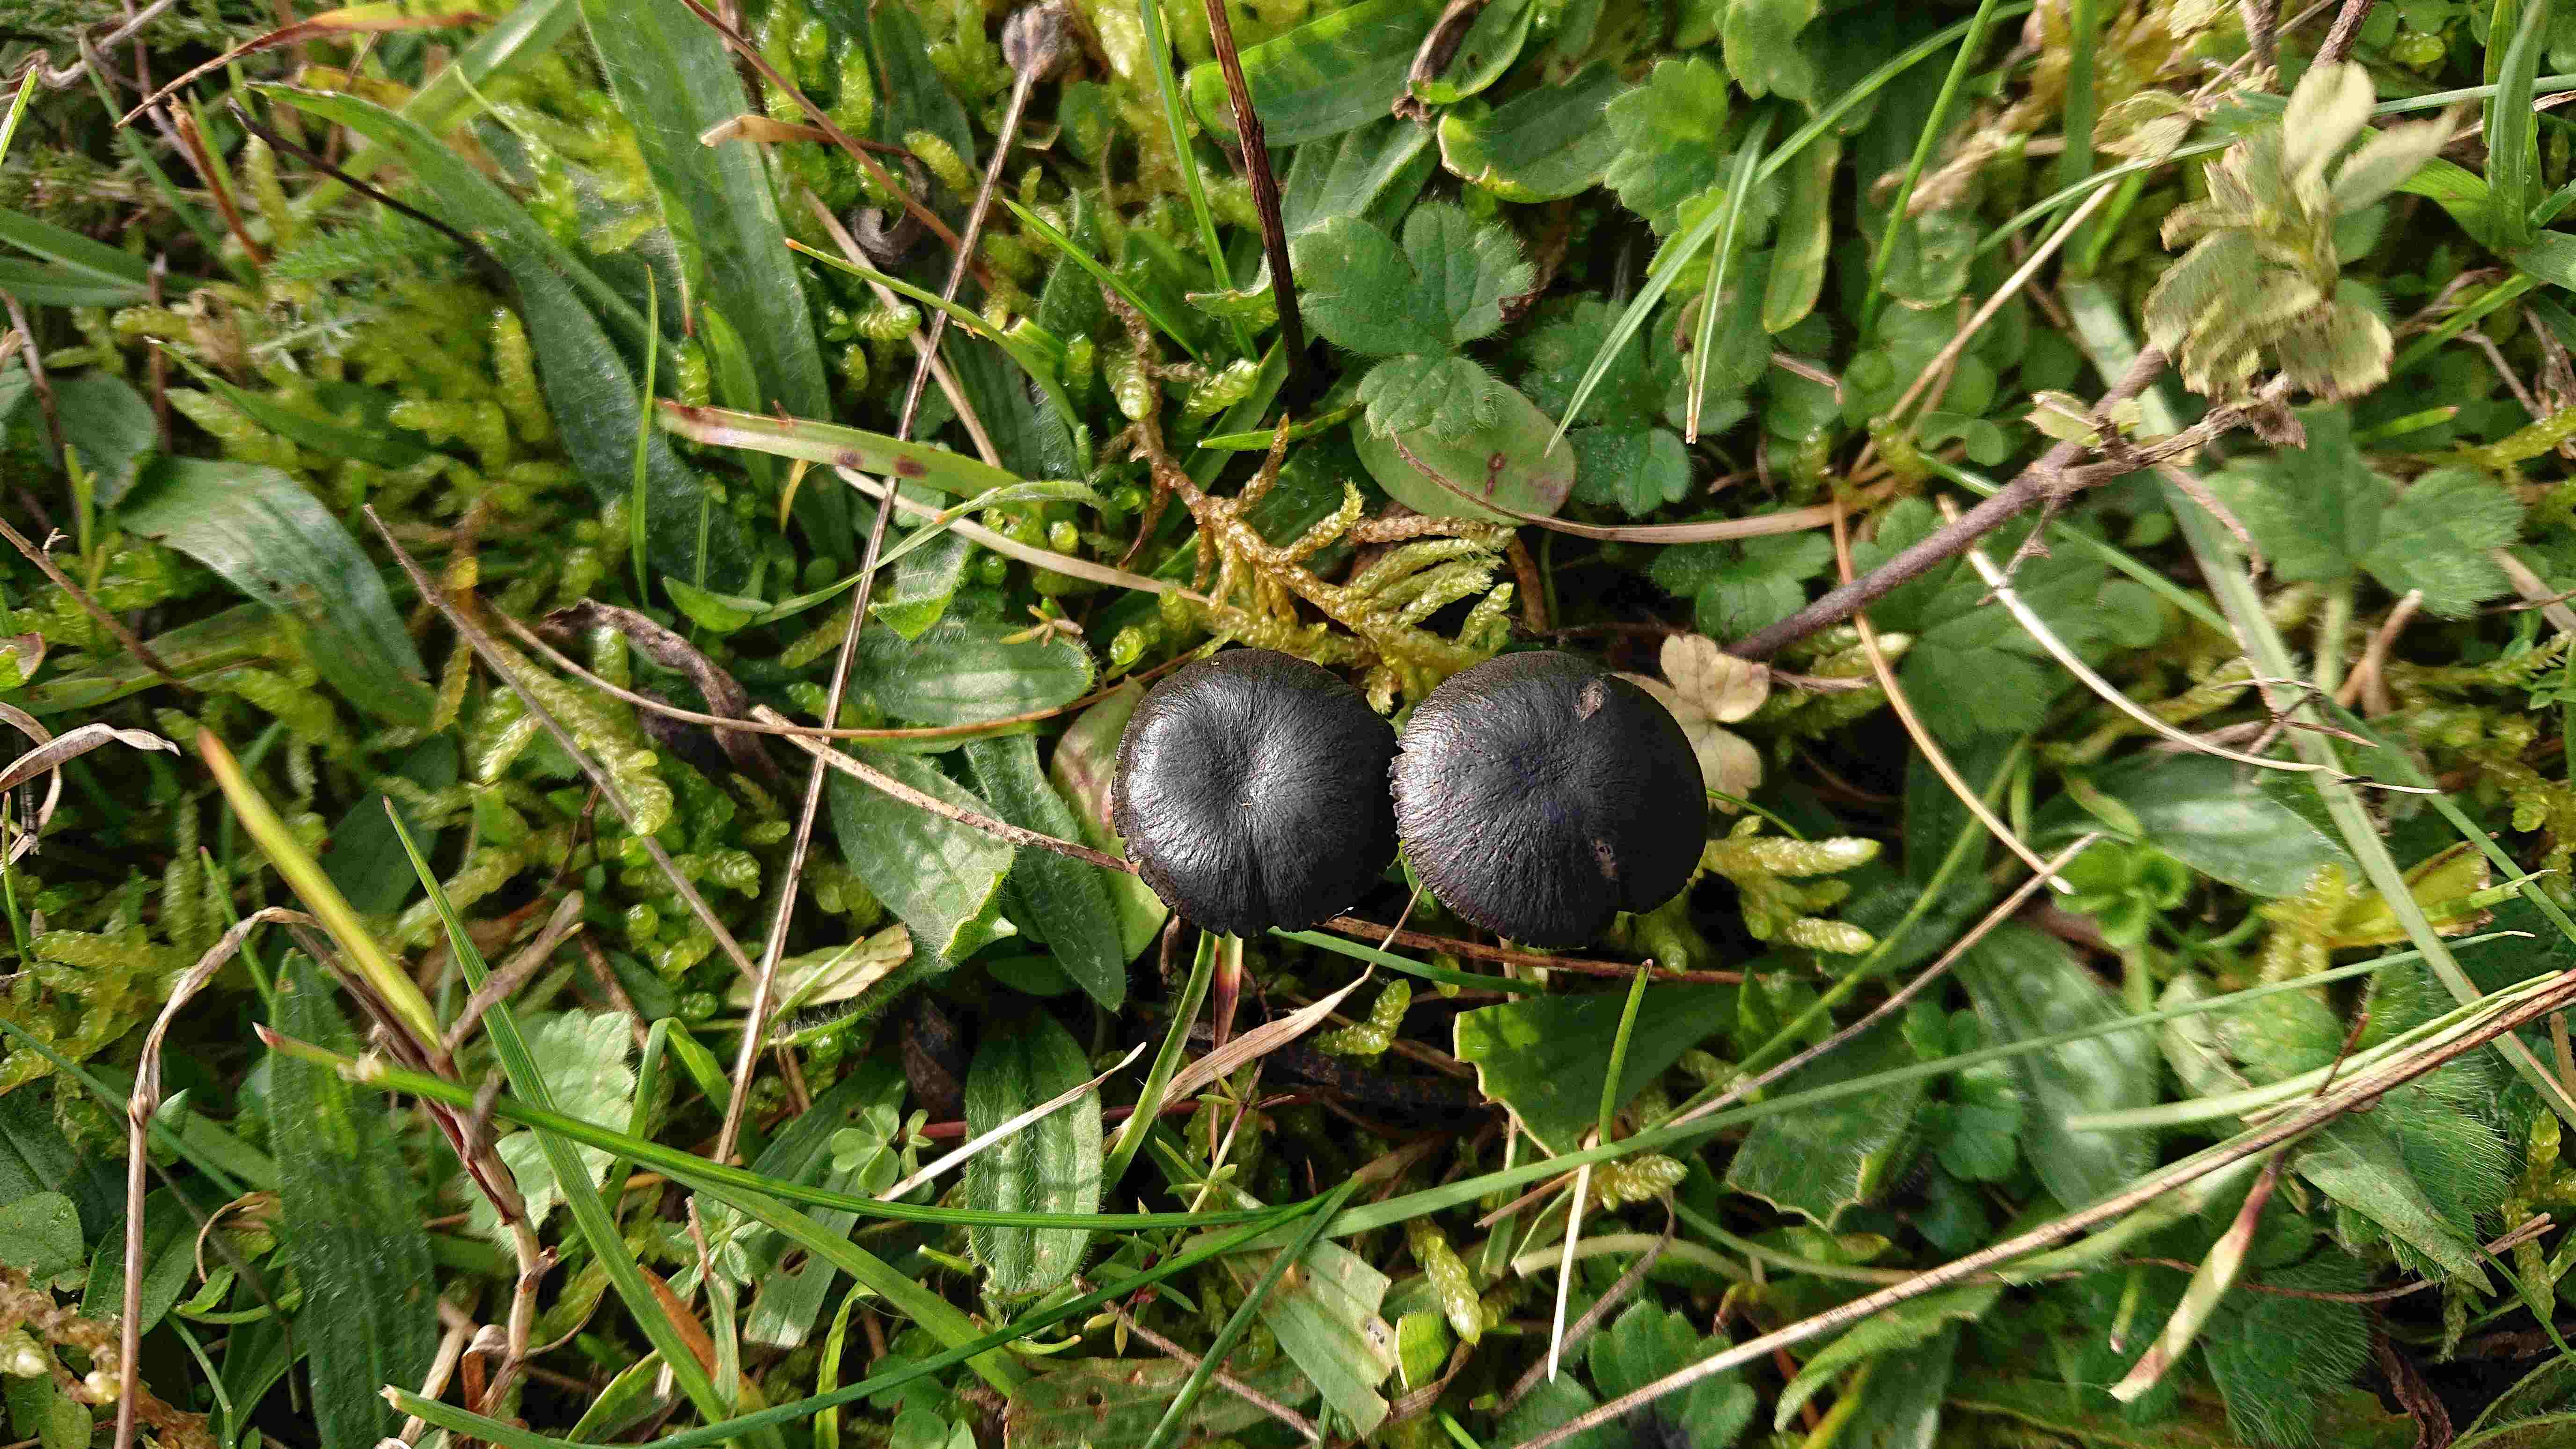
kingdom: Fungi
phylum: Basidiomycota
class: Agaricomycetes
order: Agaricales
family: Entolomataceae
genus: Entoloma
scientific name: Entoloma
